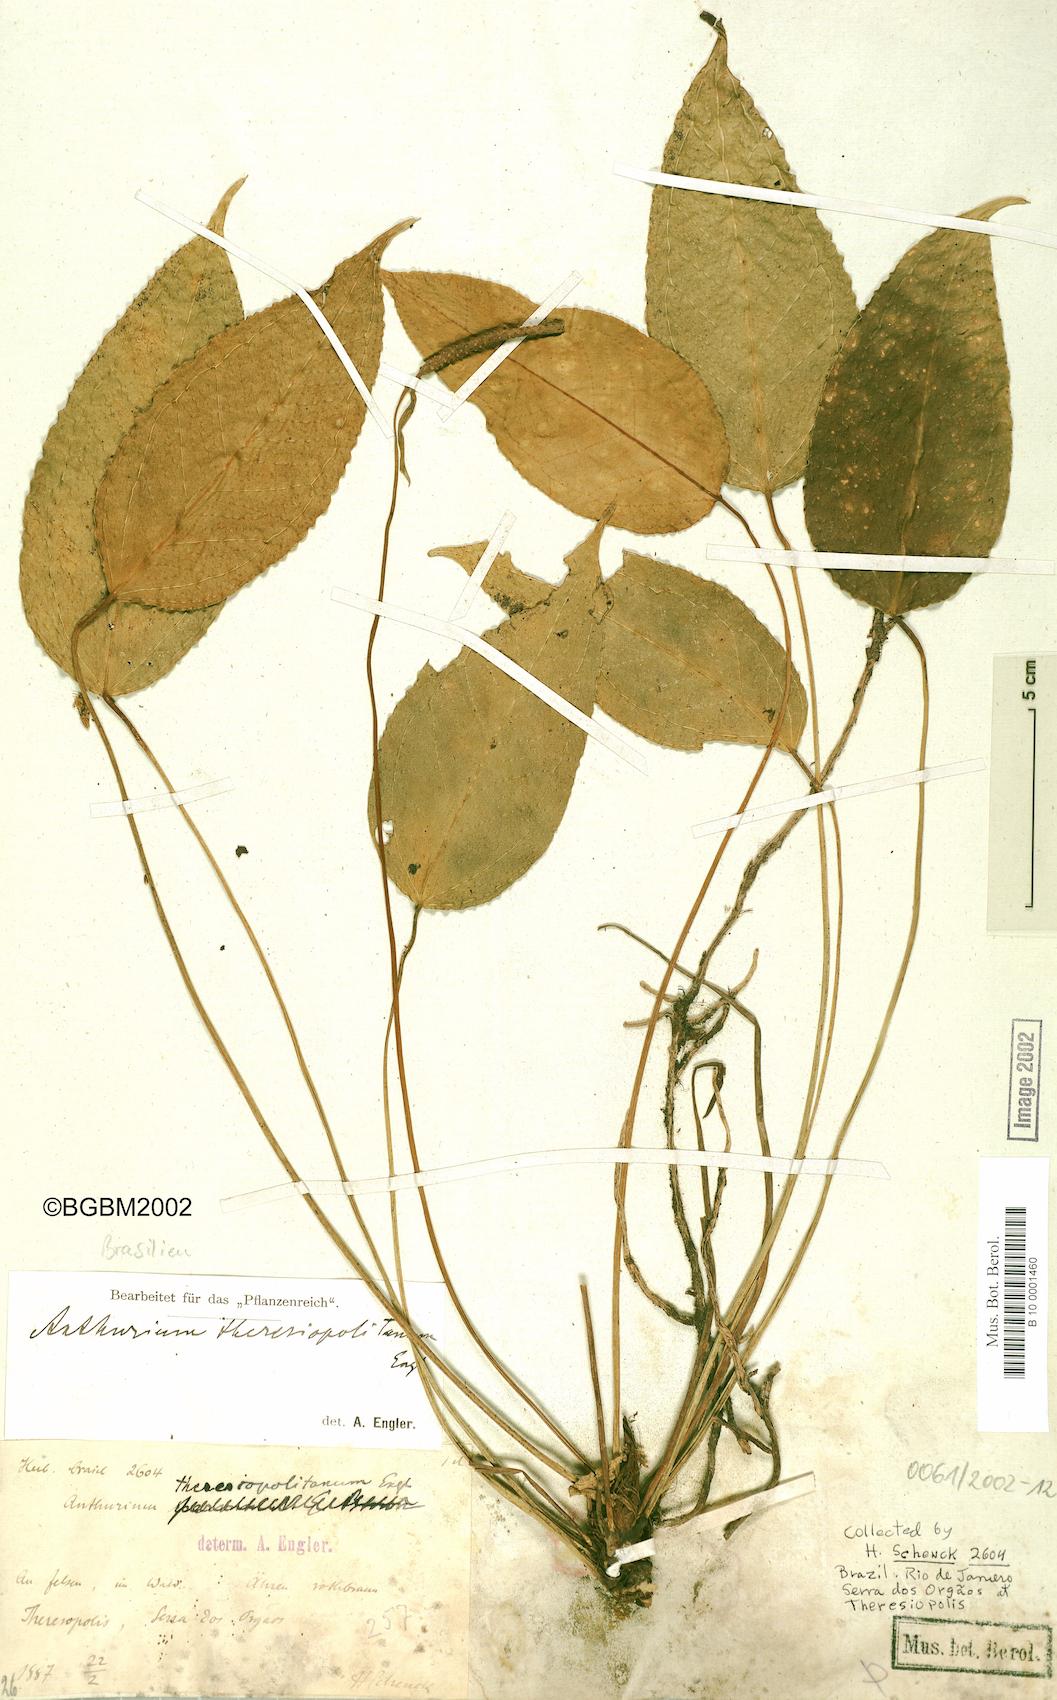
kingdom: Plantae
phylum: Tracheophyta
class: Liliopsida
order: Alismatales
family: Araceae
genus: Anthurium
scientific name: Anthurium parvum
